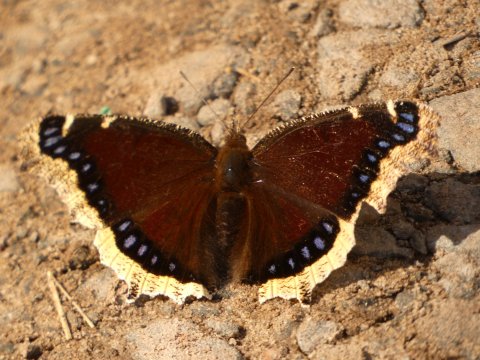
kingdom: Animalia
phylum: Arthropoda
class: Insecta
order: Lepidoptera
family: Nymphalidae
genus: Nymphalis
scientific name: Nymphalis antiopa
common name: Mourning Cloak
